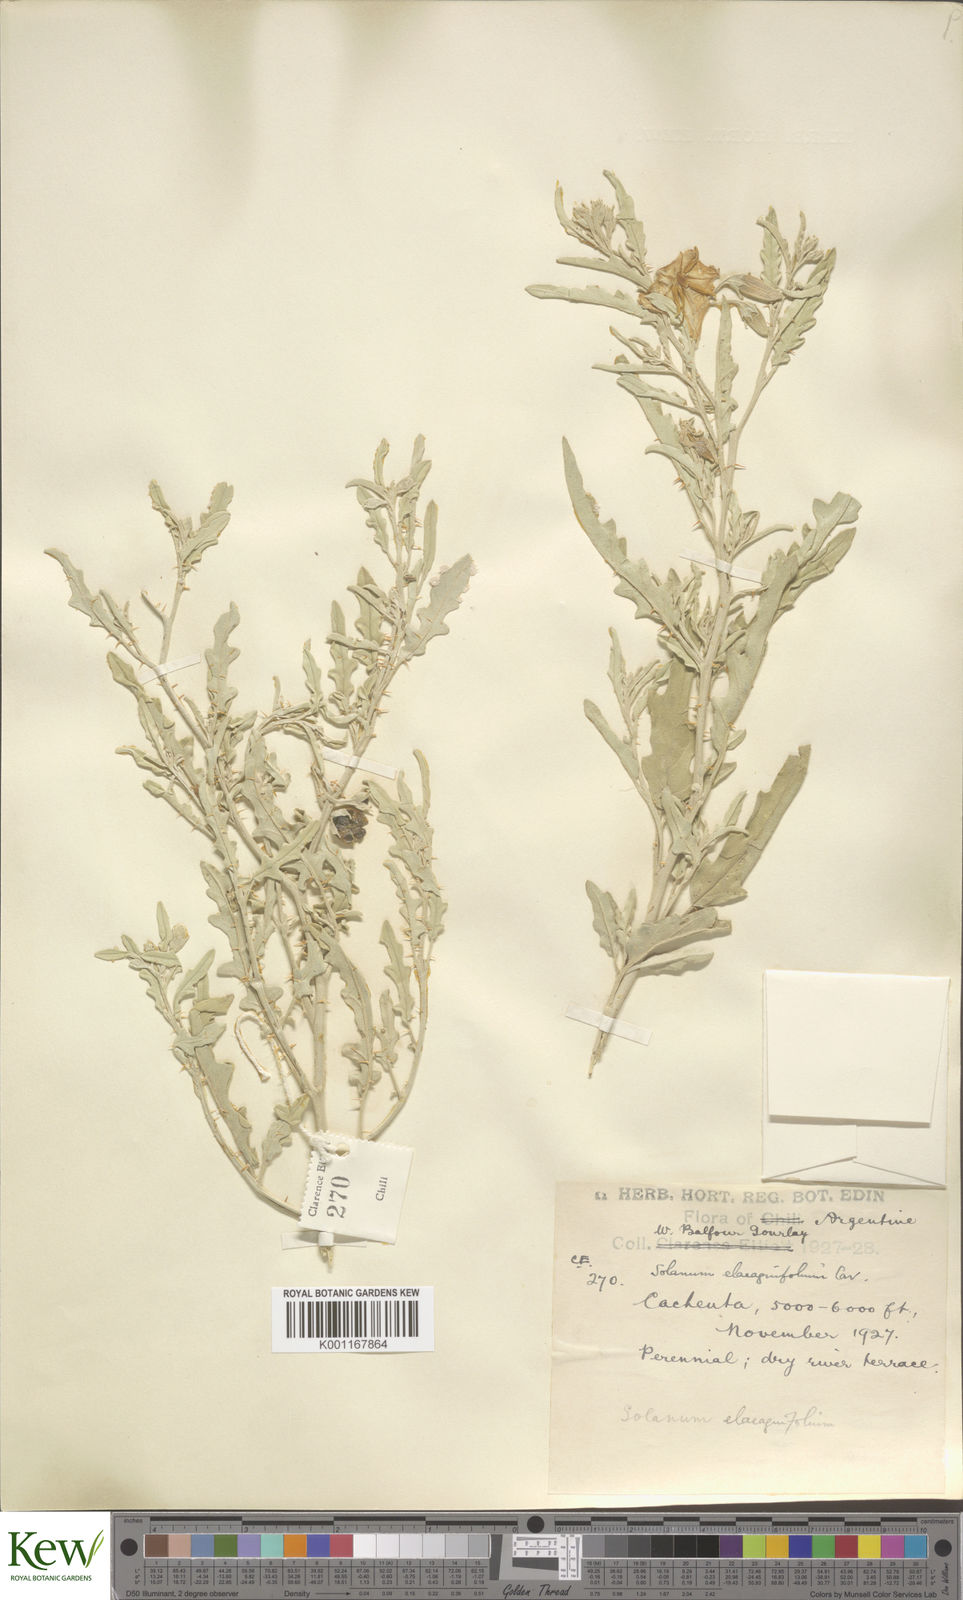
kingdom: Plantae
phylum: Tracheophyta
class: Magnoliopsida
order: Solanales
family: Solanaceae
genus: Solanum
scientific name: Solanum elaeagnifolium
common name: Silverleaf nightshade
